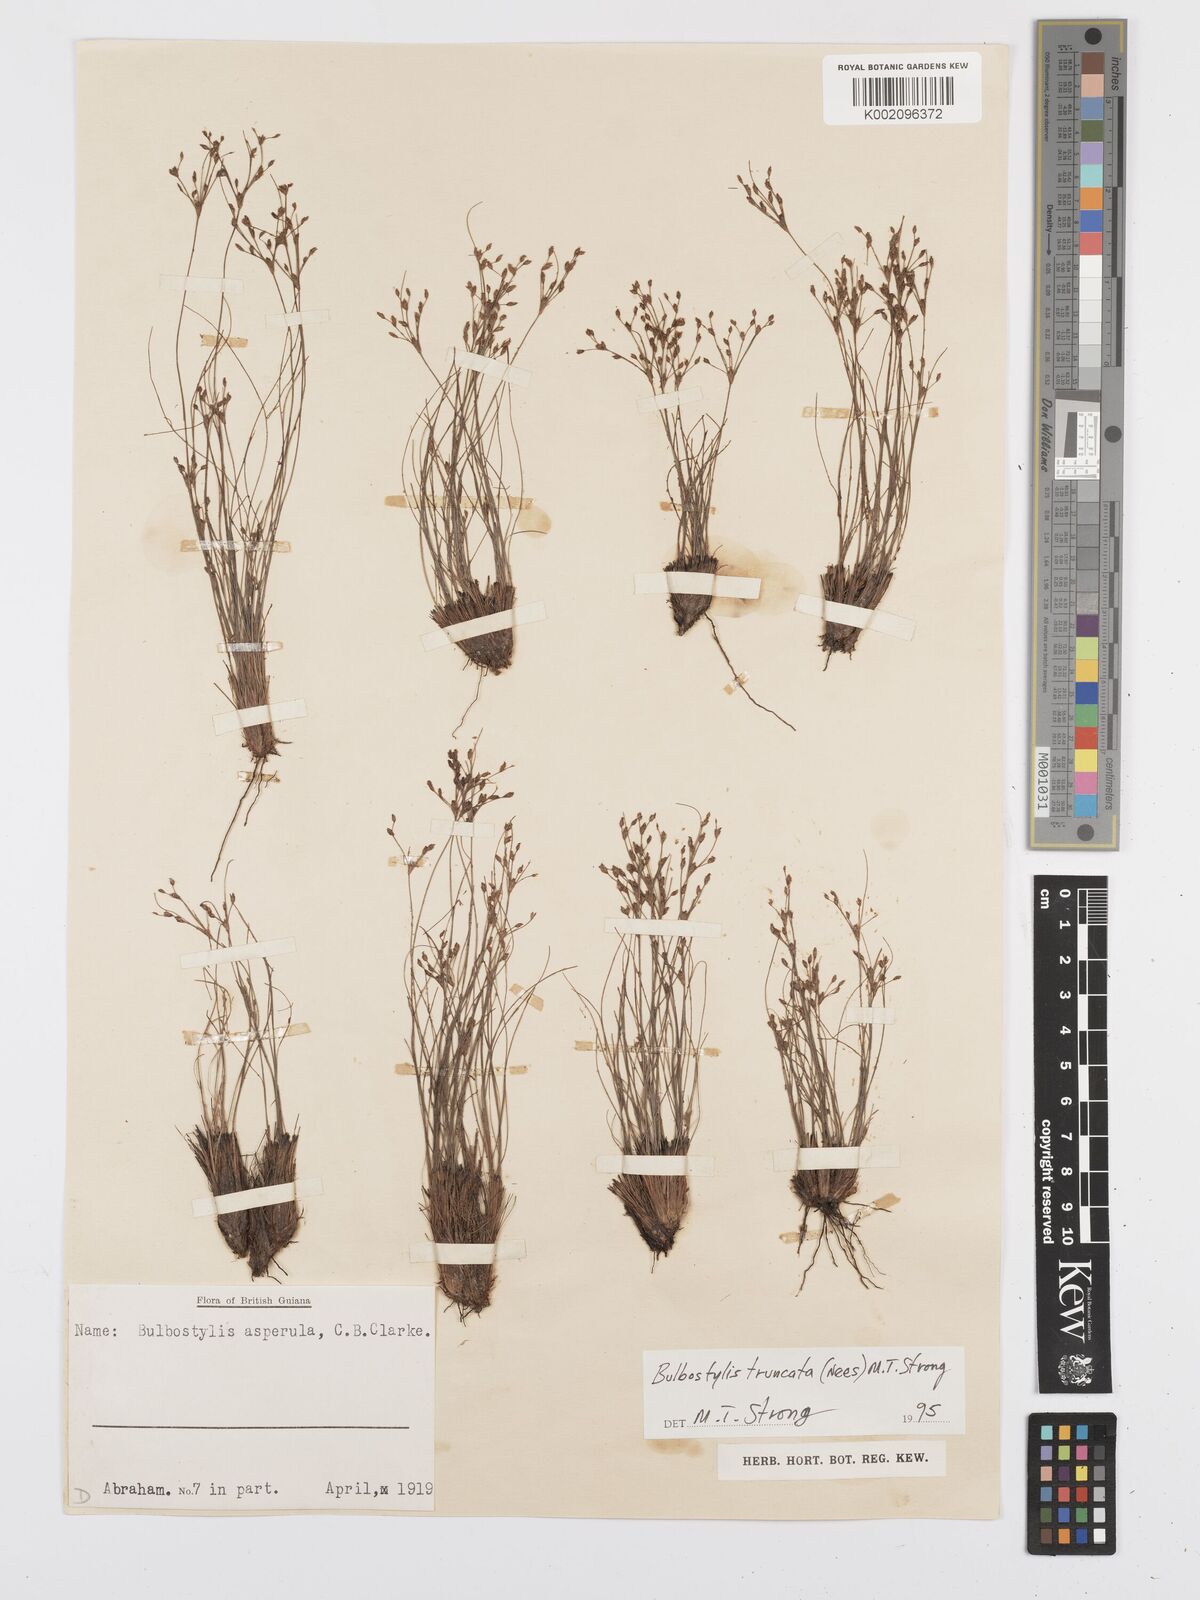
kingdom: Plantae
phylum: Tracheophyta
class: Liliopsida
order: Poales
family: Cyperaceae
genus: Bulbostylis
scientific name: Bulbostylis truncata
